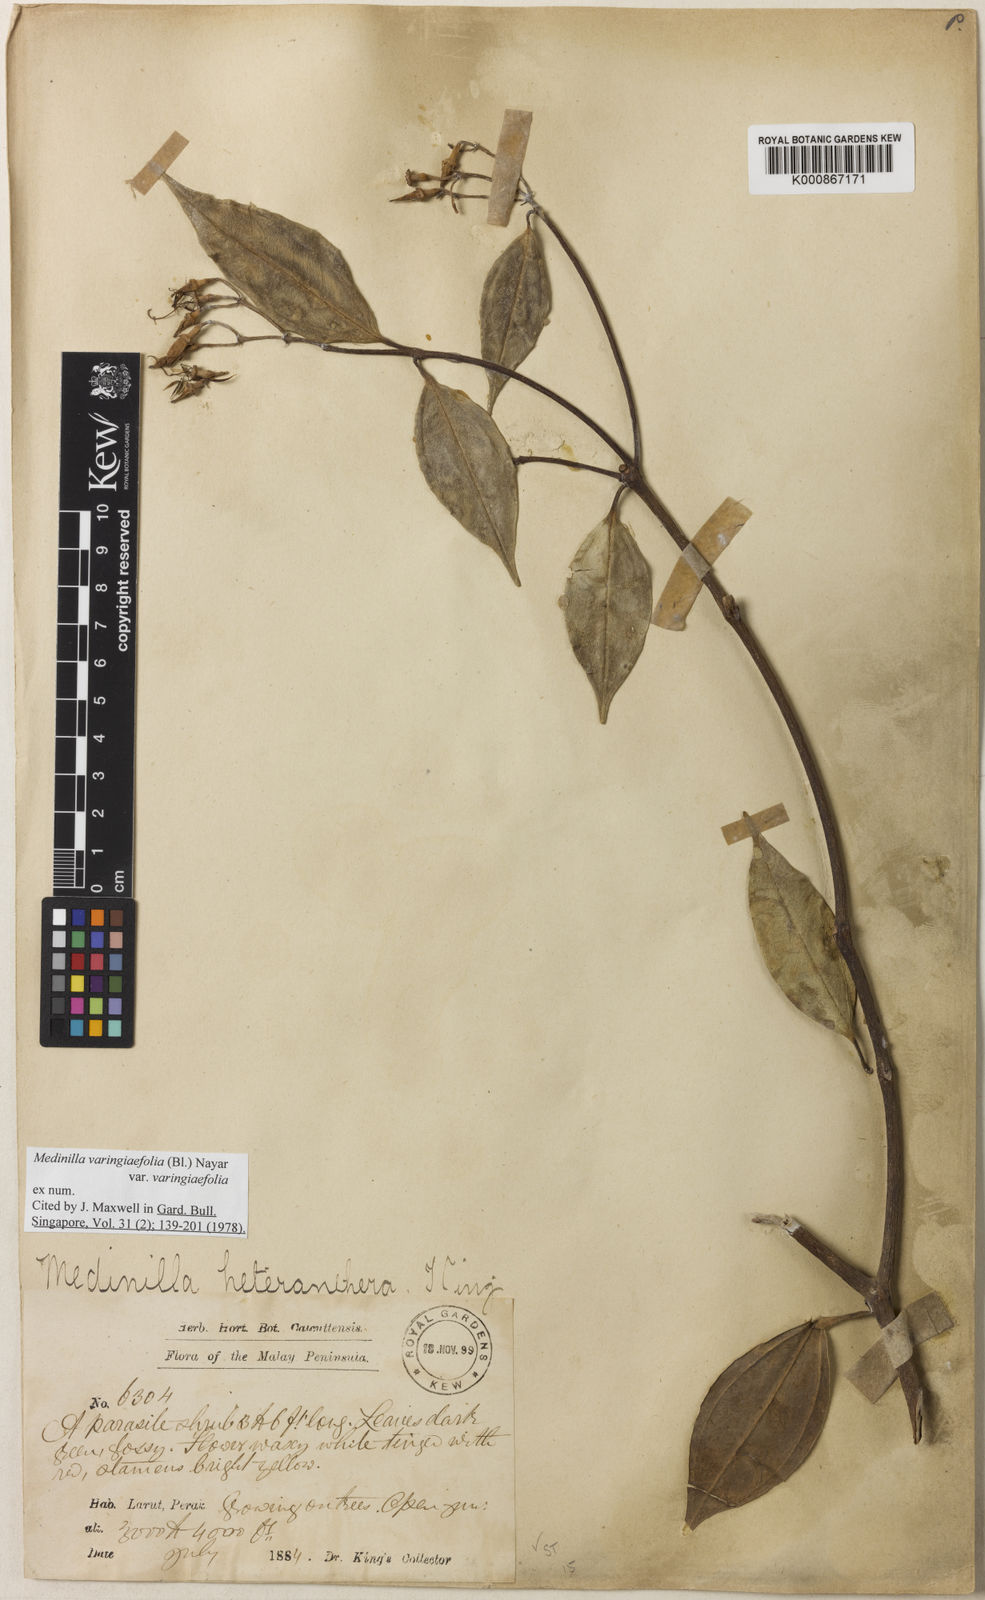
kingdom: Plantae
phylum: Tracheophyta
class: Magnoliopsida
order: Myrtales
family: Melastomataceae
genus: Pachycentria
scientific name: Pachycentria varingiaefolia
